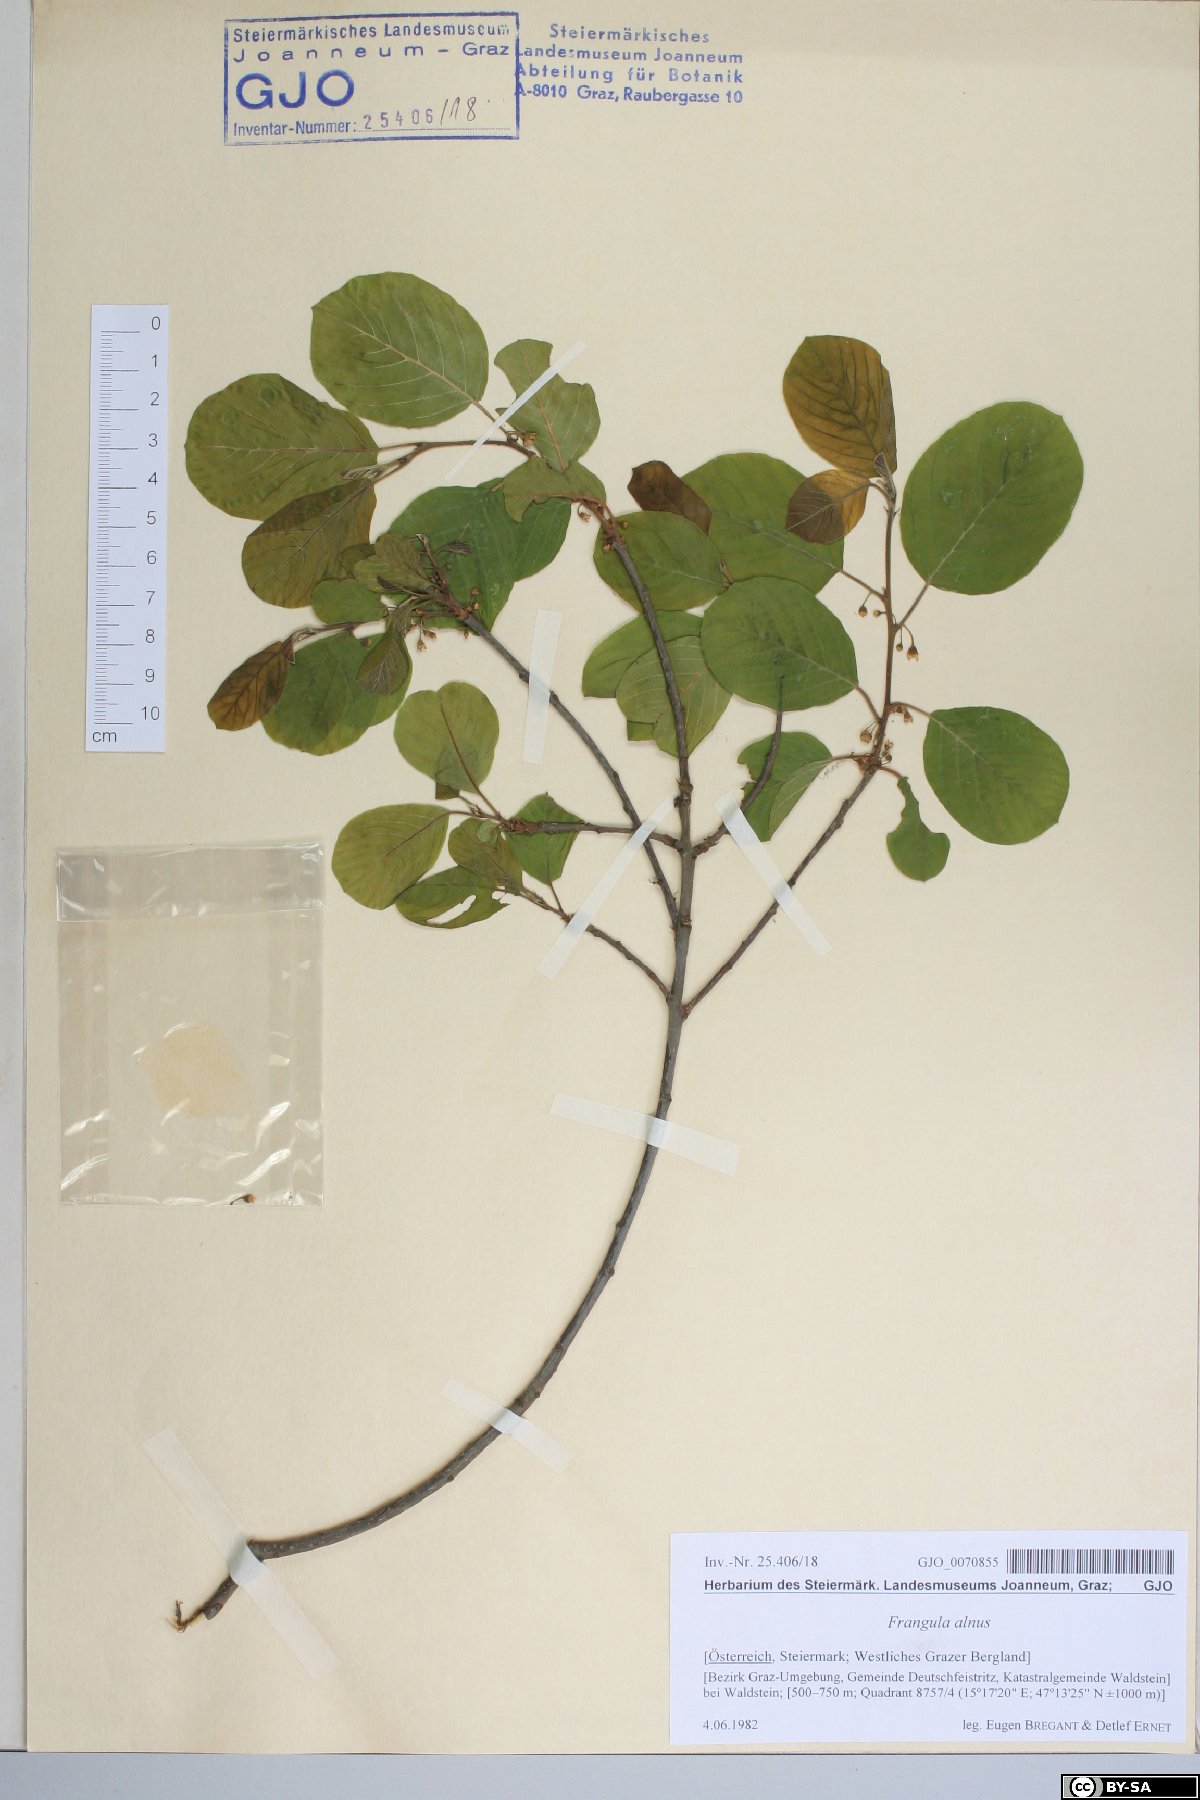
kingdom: Plantae
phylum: Tracheophyta
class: Magnoliopsida
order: Rosales
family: Rhamnaceae
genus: Frangula
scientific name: Frangula alnus
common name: Alder buckthorn
